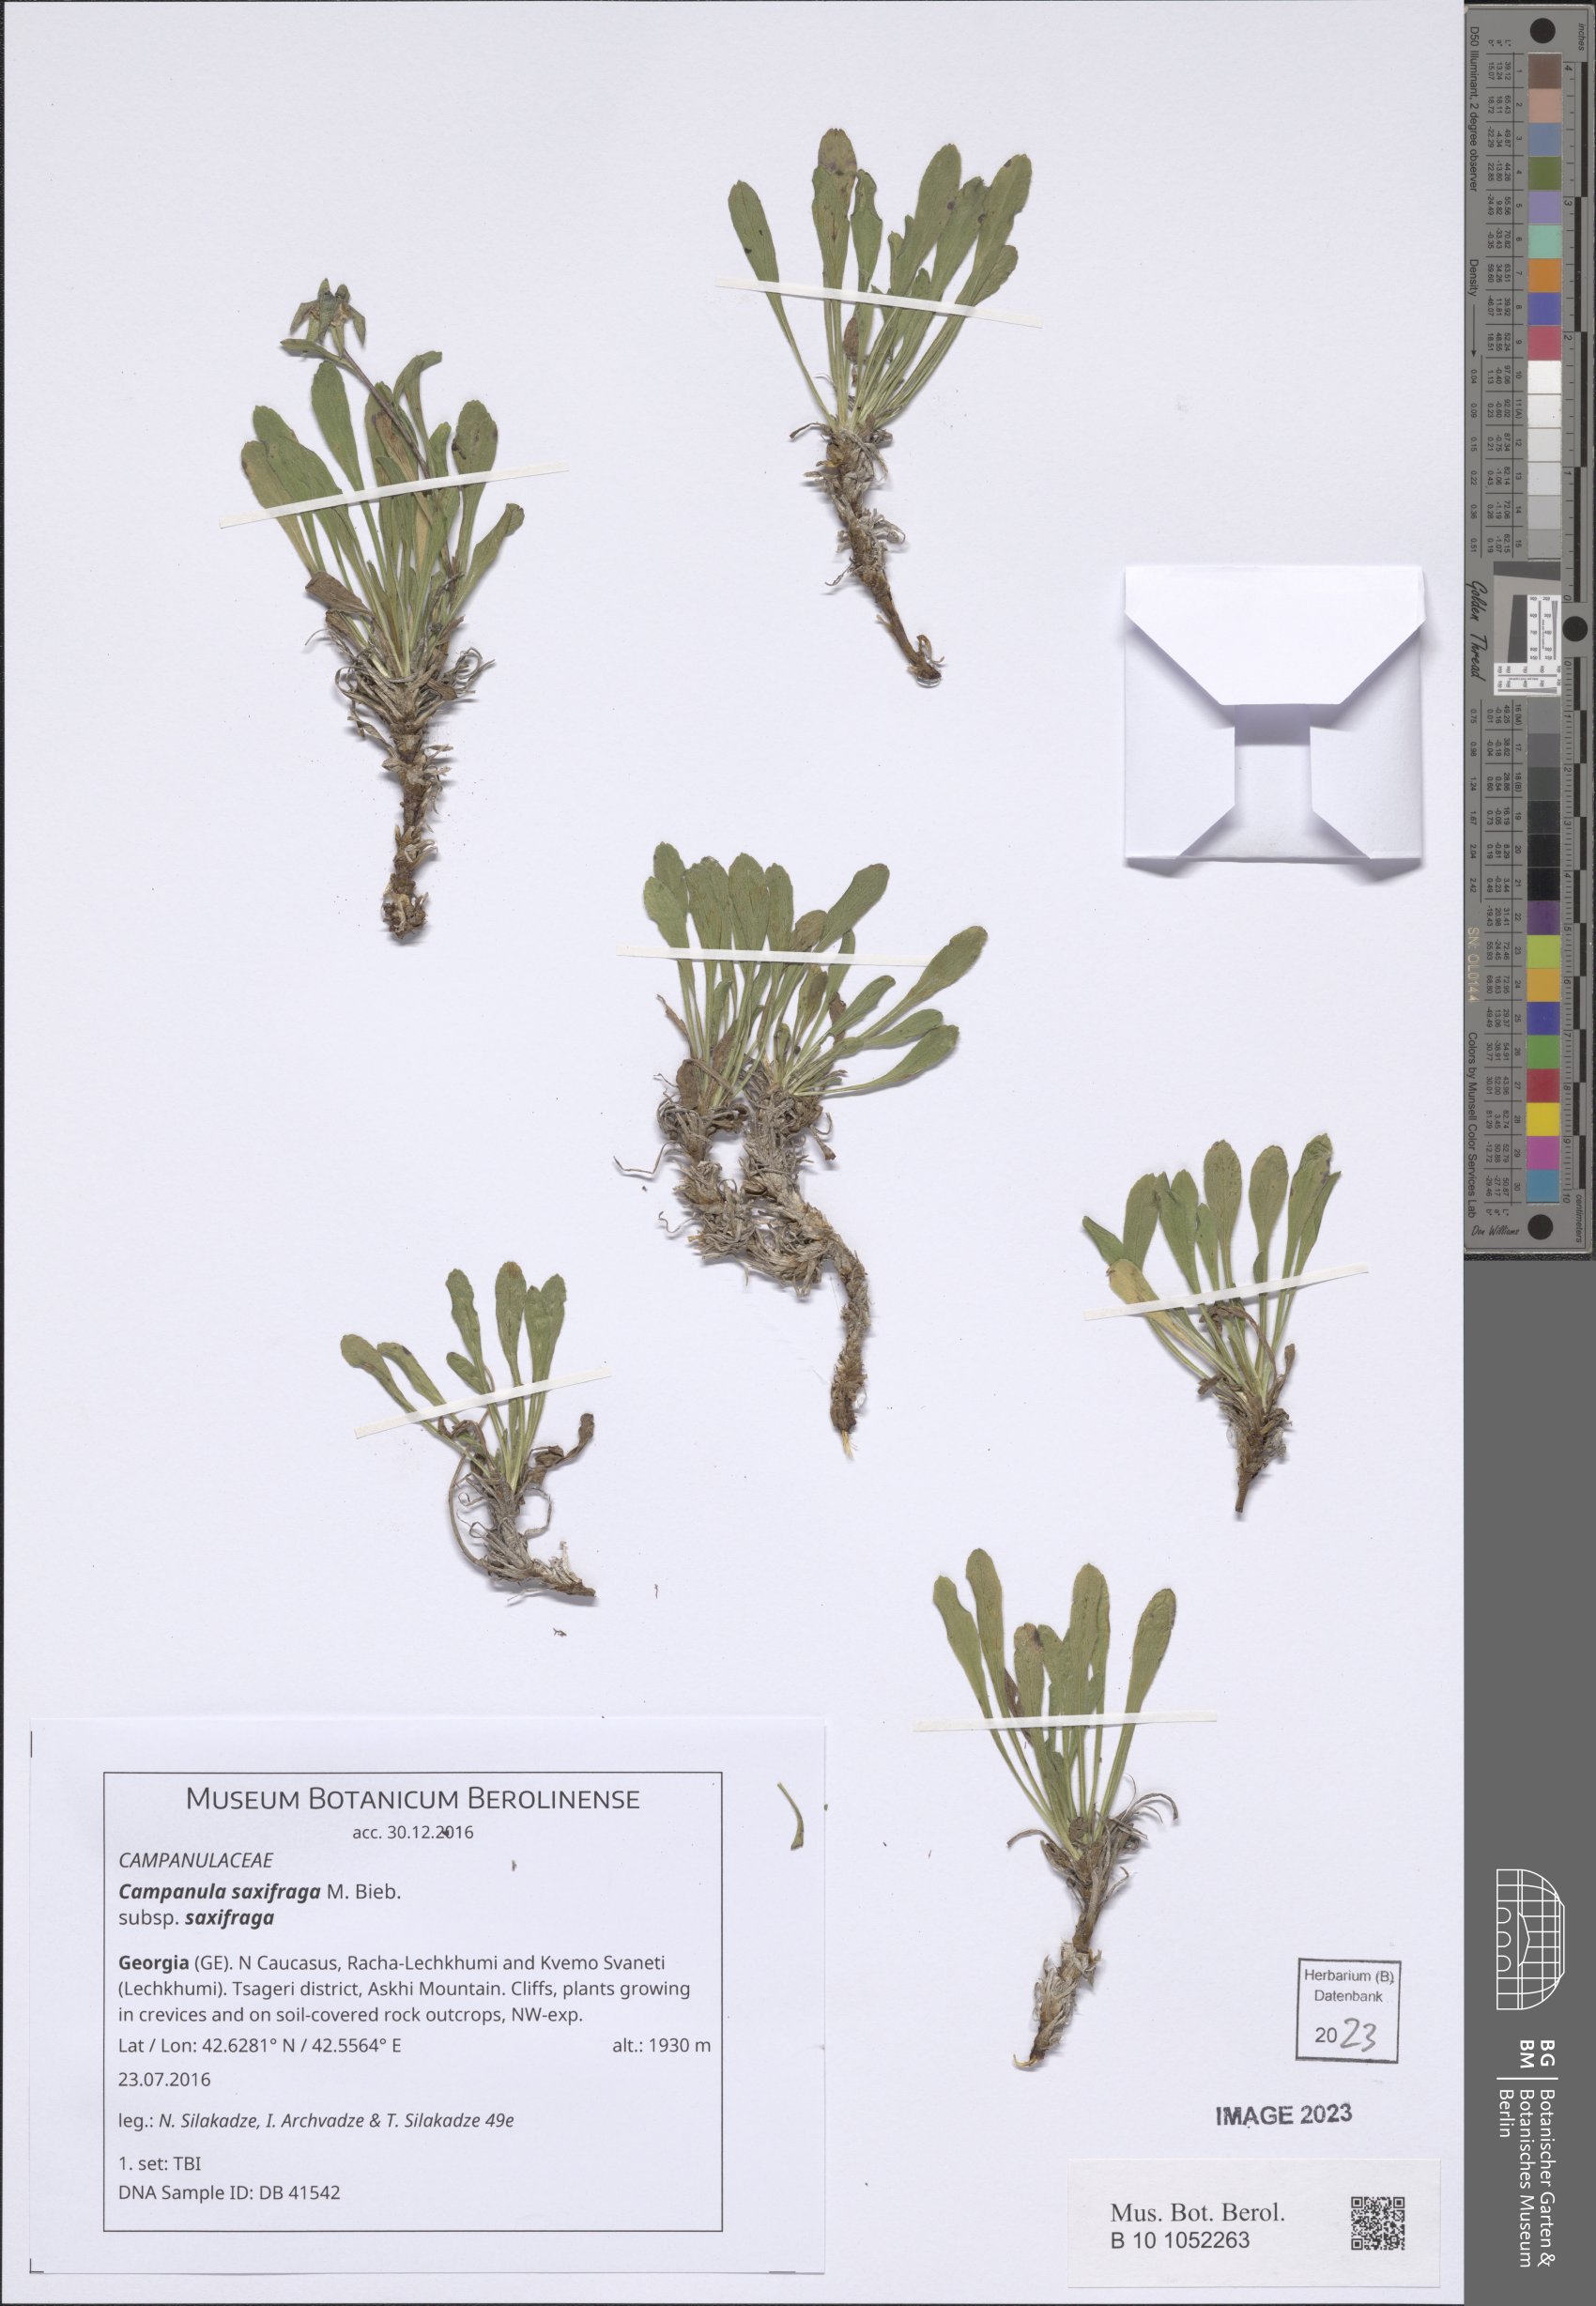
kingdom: Plantae
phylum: Tracheophyta
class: Magnoliopsida
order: Asterales
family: Campanulaceae
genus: Campanula
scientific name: Campanula saxifraga
